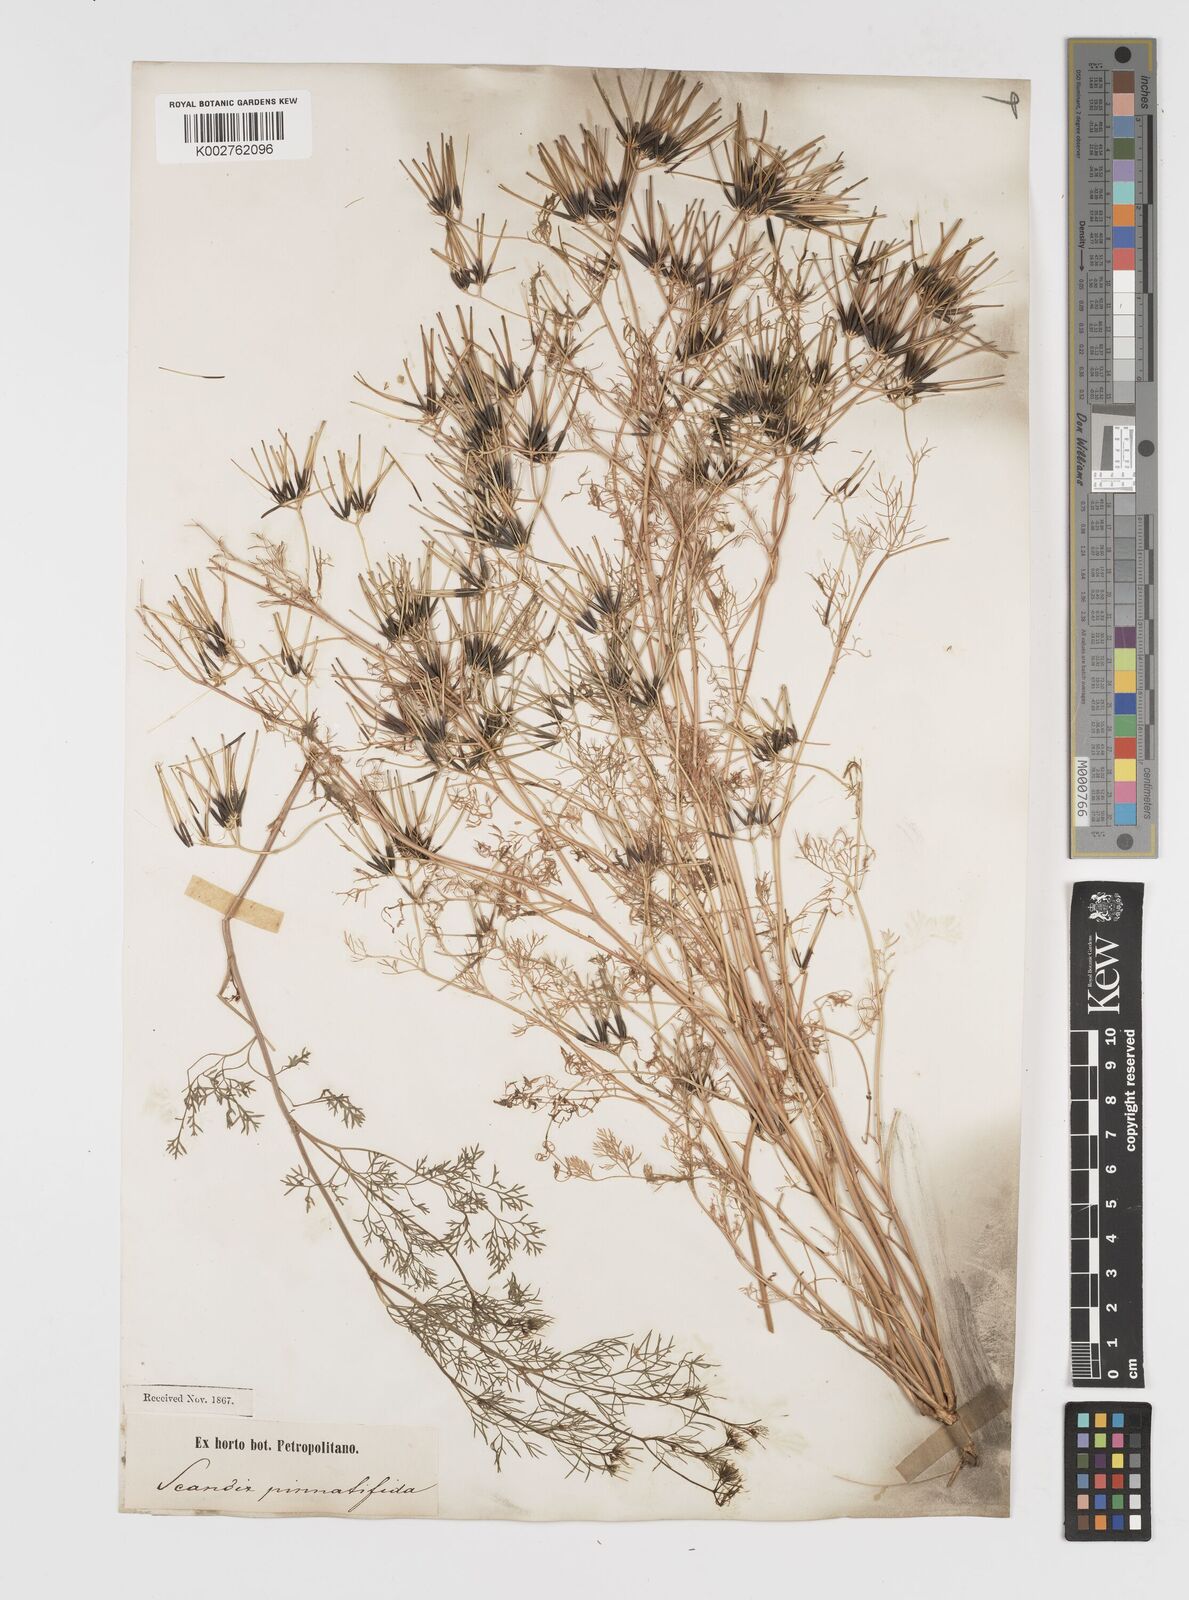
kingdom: Plantae
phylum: Tracheophyta
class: Magnoliopsida
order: Apiales
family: Apiaceae
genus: Scandix
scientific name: Scandix stellata
